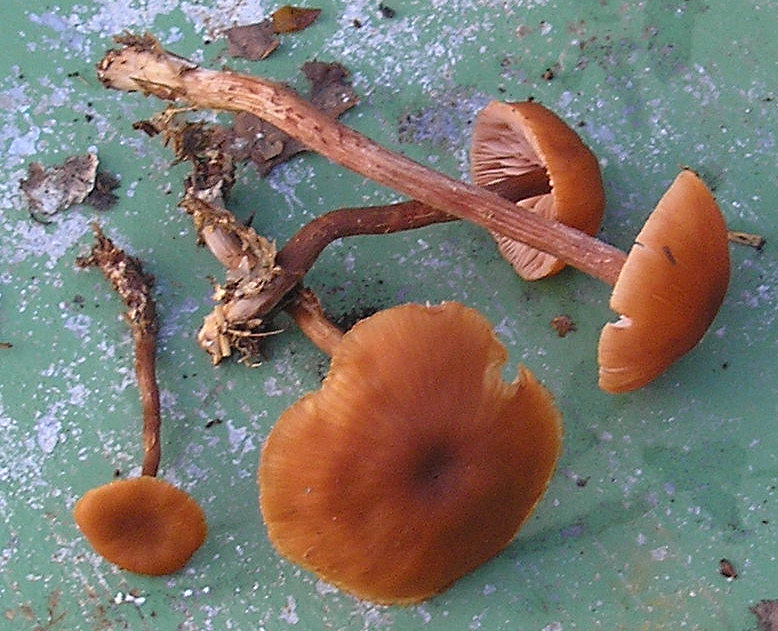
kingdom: Fungi
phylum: Basidiomycota
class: Agaricomycetes
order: Agaricales
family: Hydnangiaceae
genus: Laccaria
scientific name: Laccaria proxima
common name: stor ametysthat
